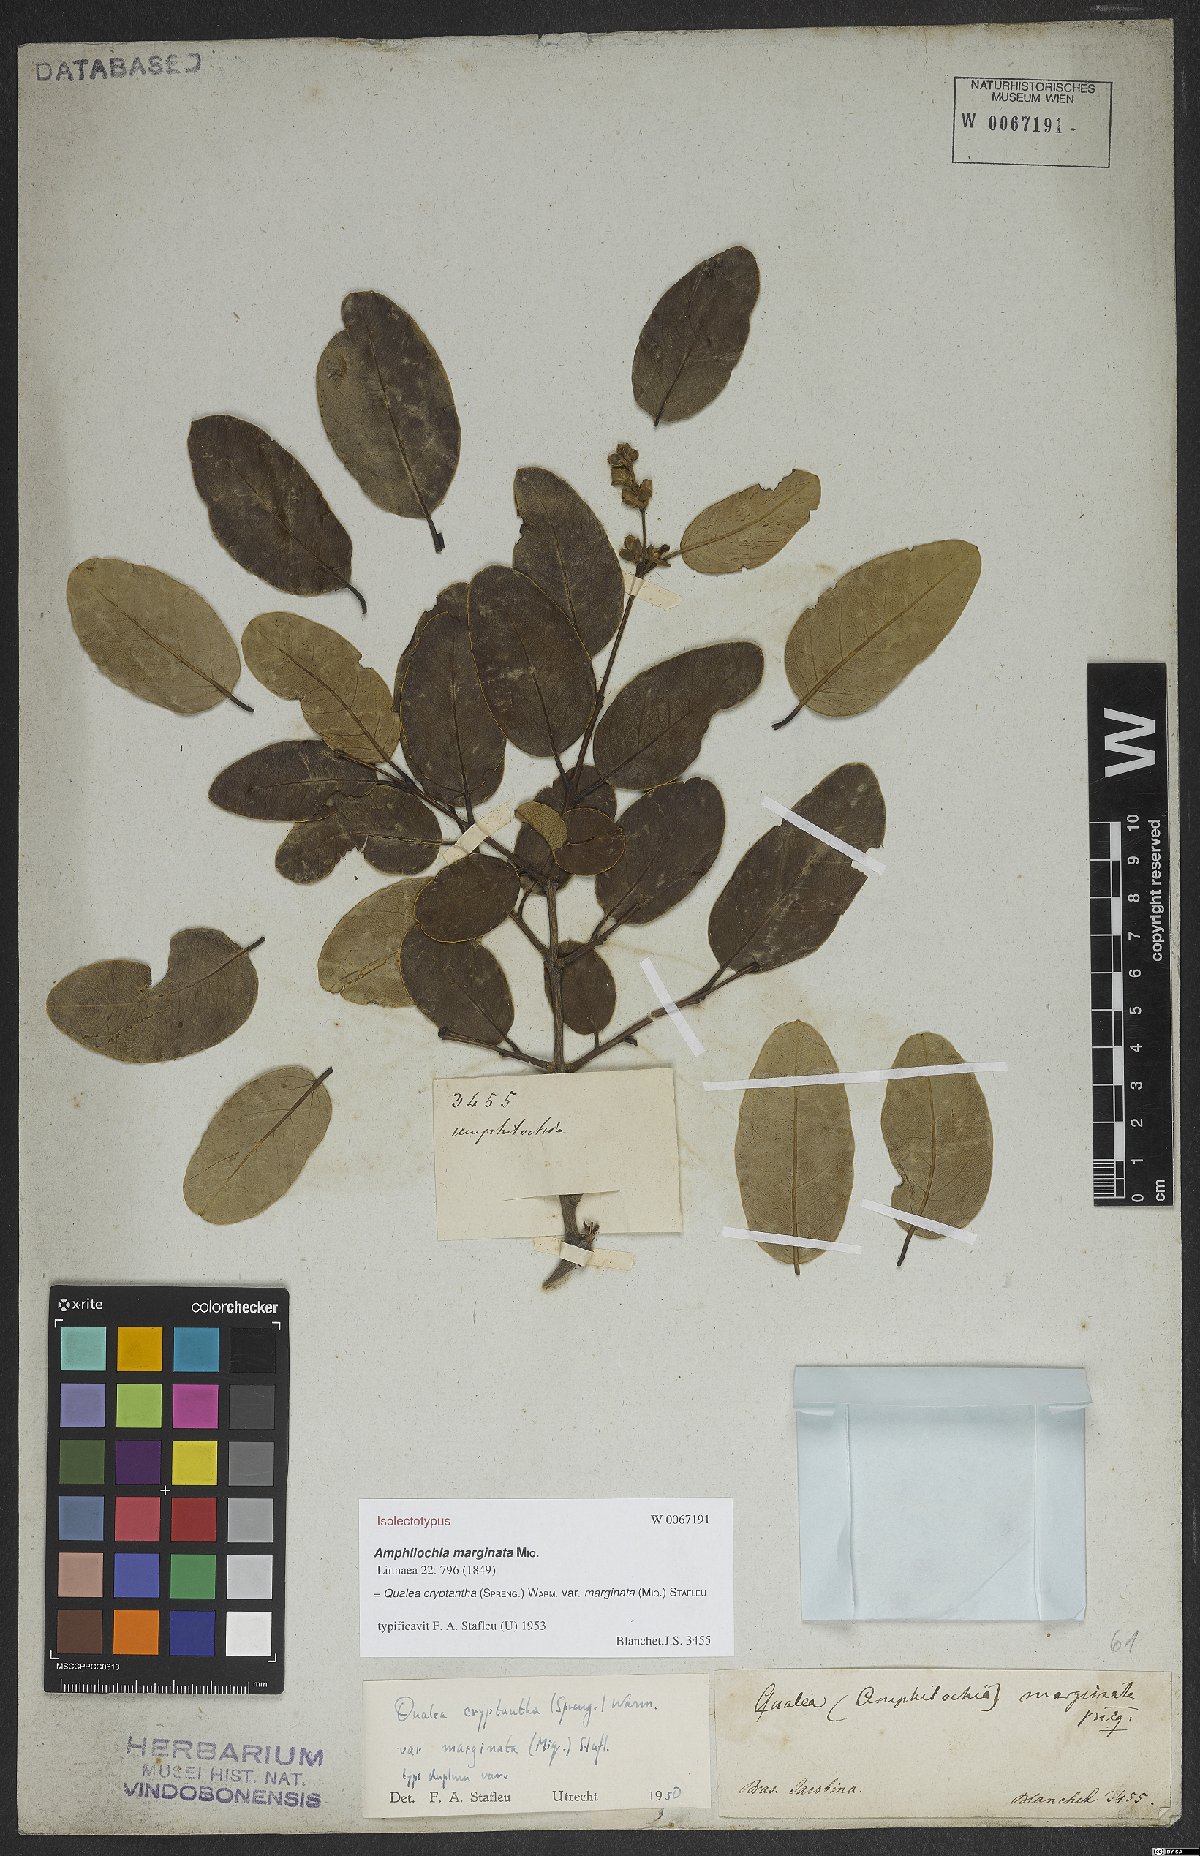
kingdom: Plantae
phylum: Tracheophyta
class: Magnoliopsida
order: Myrtales
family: Vochysiaceae
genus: Qualea
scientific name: Qualea cryptantha
